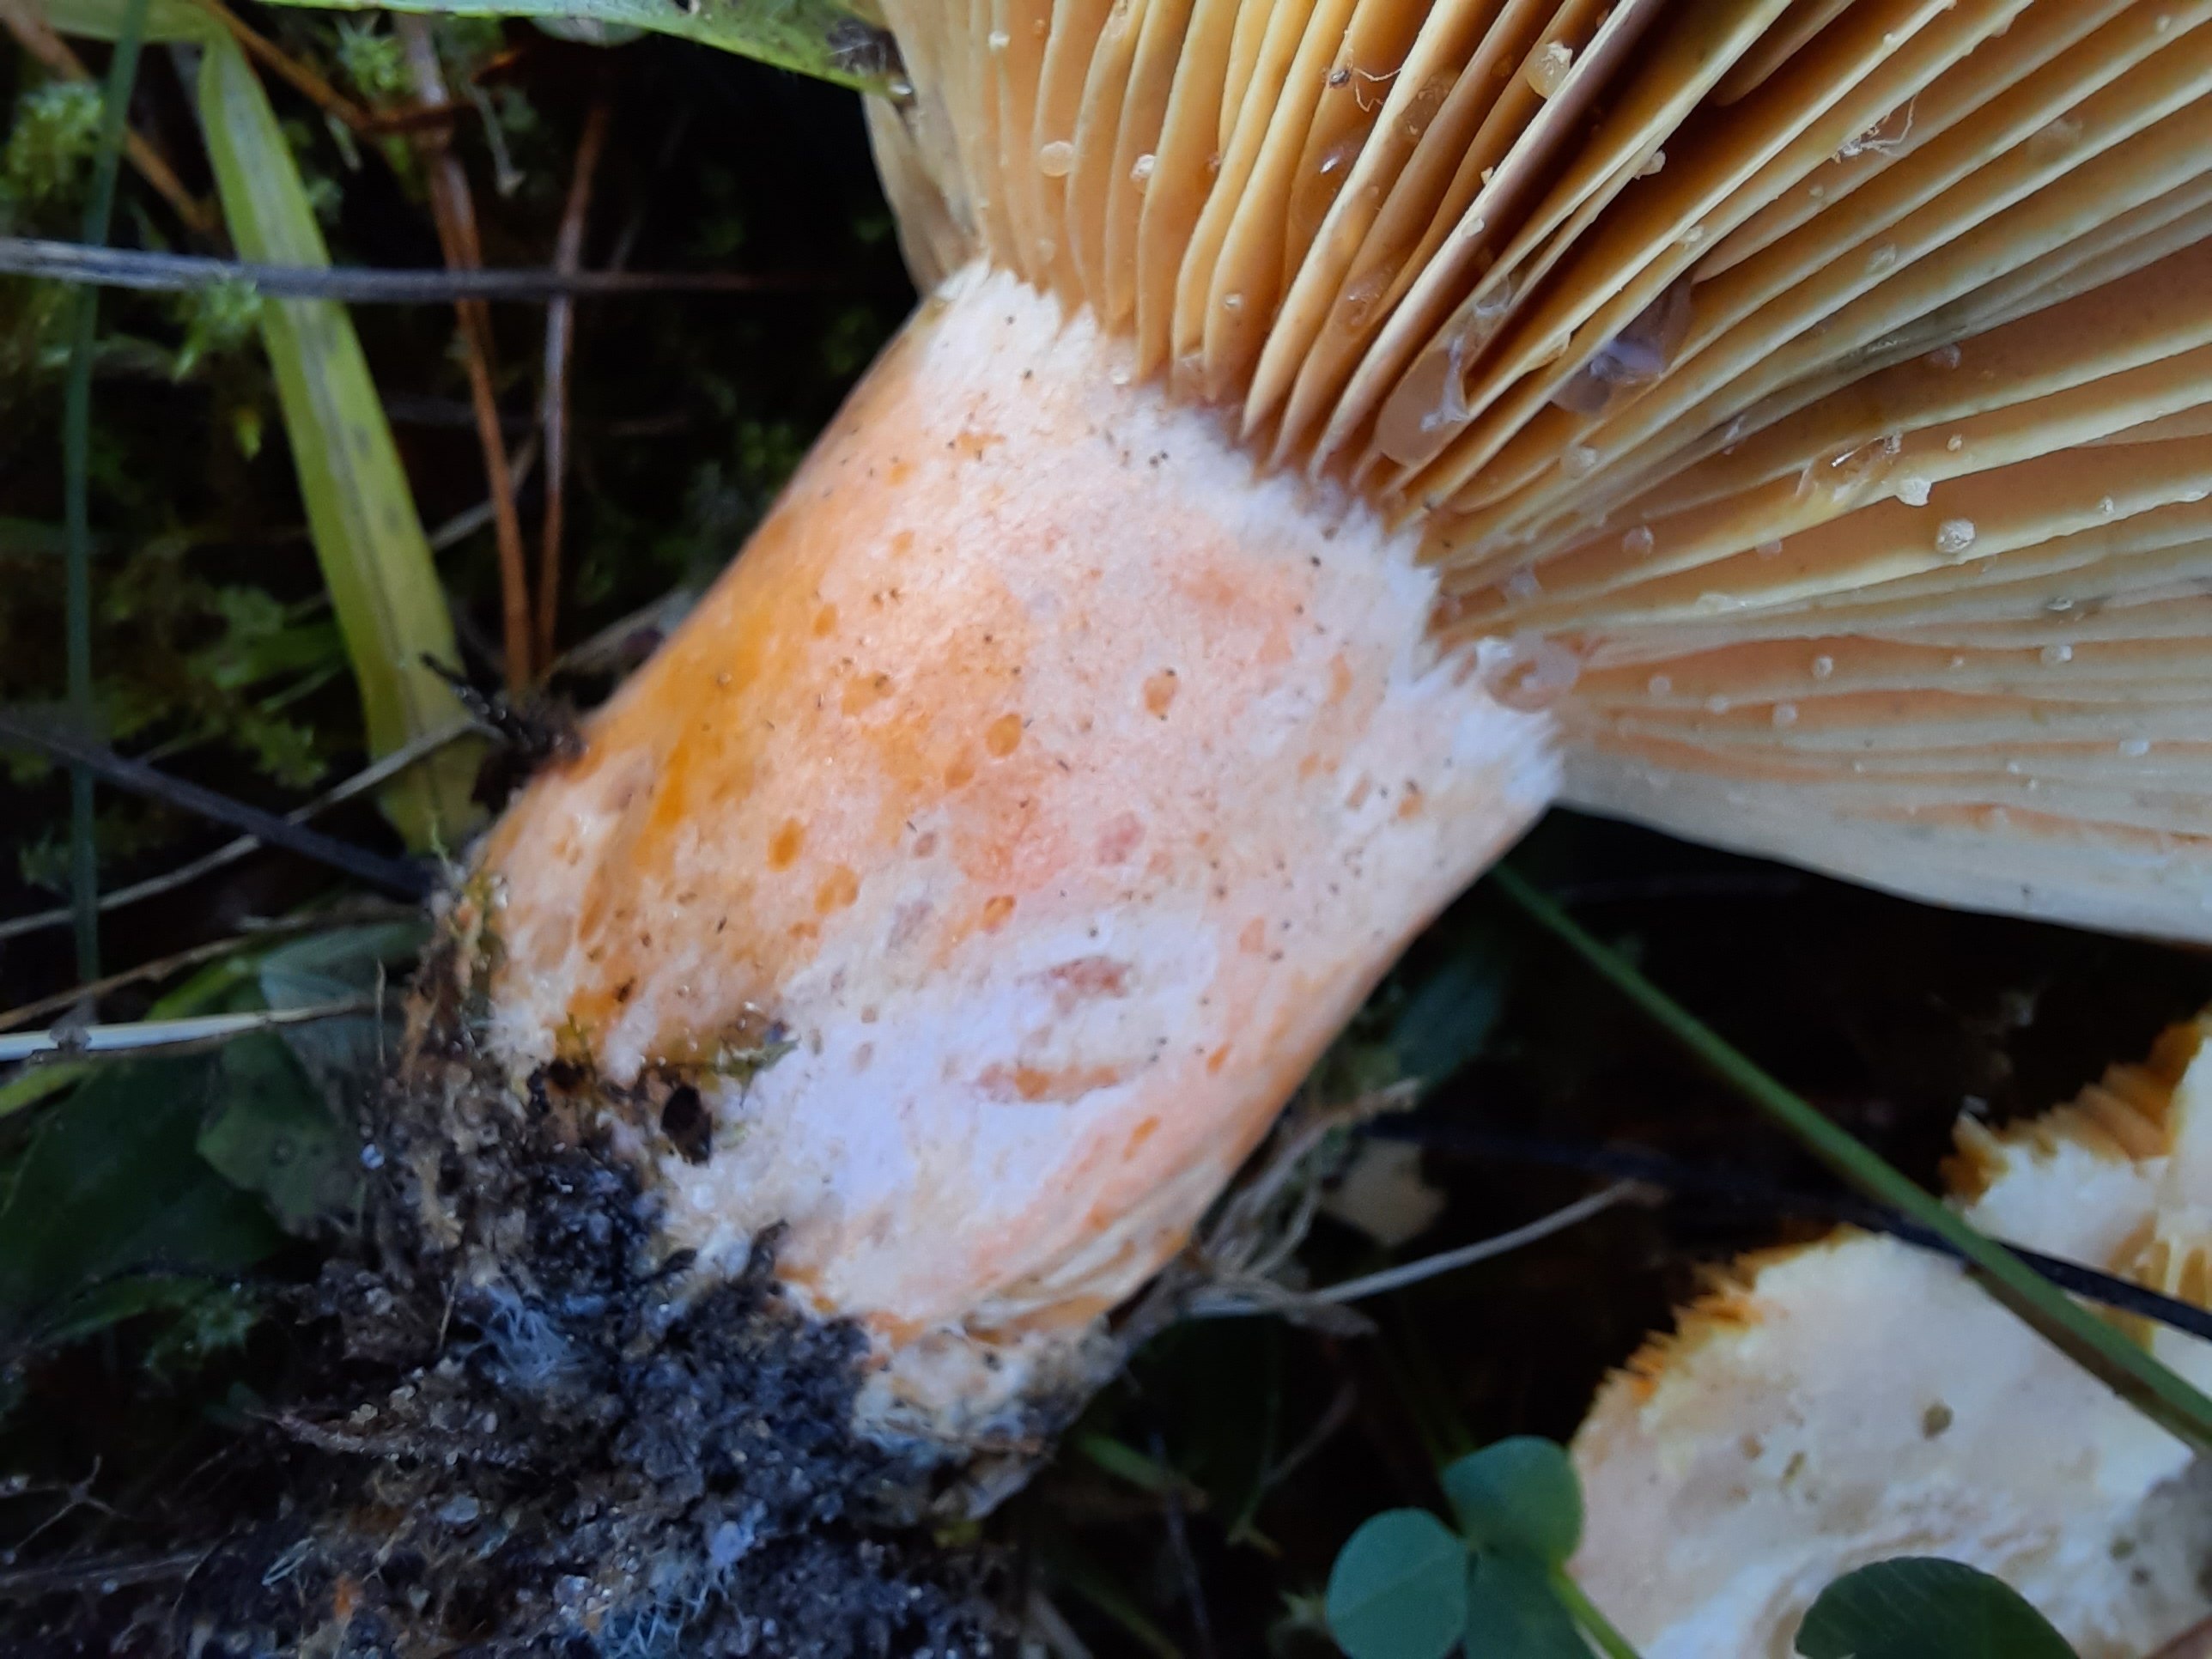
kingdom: Fungi
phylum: Basidiomycota
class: Agaricomycetes
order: Russulales
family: Russulaceae
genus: Lactarius
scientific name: Lactarius deliciosus
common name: velsmagende mælkehat
